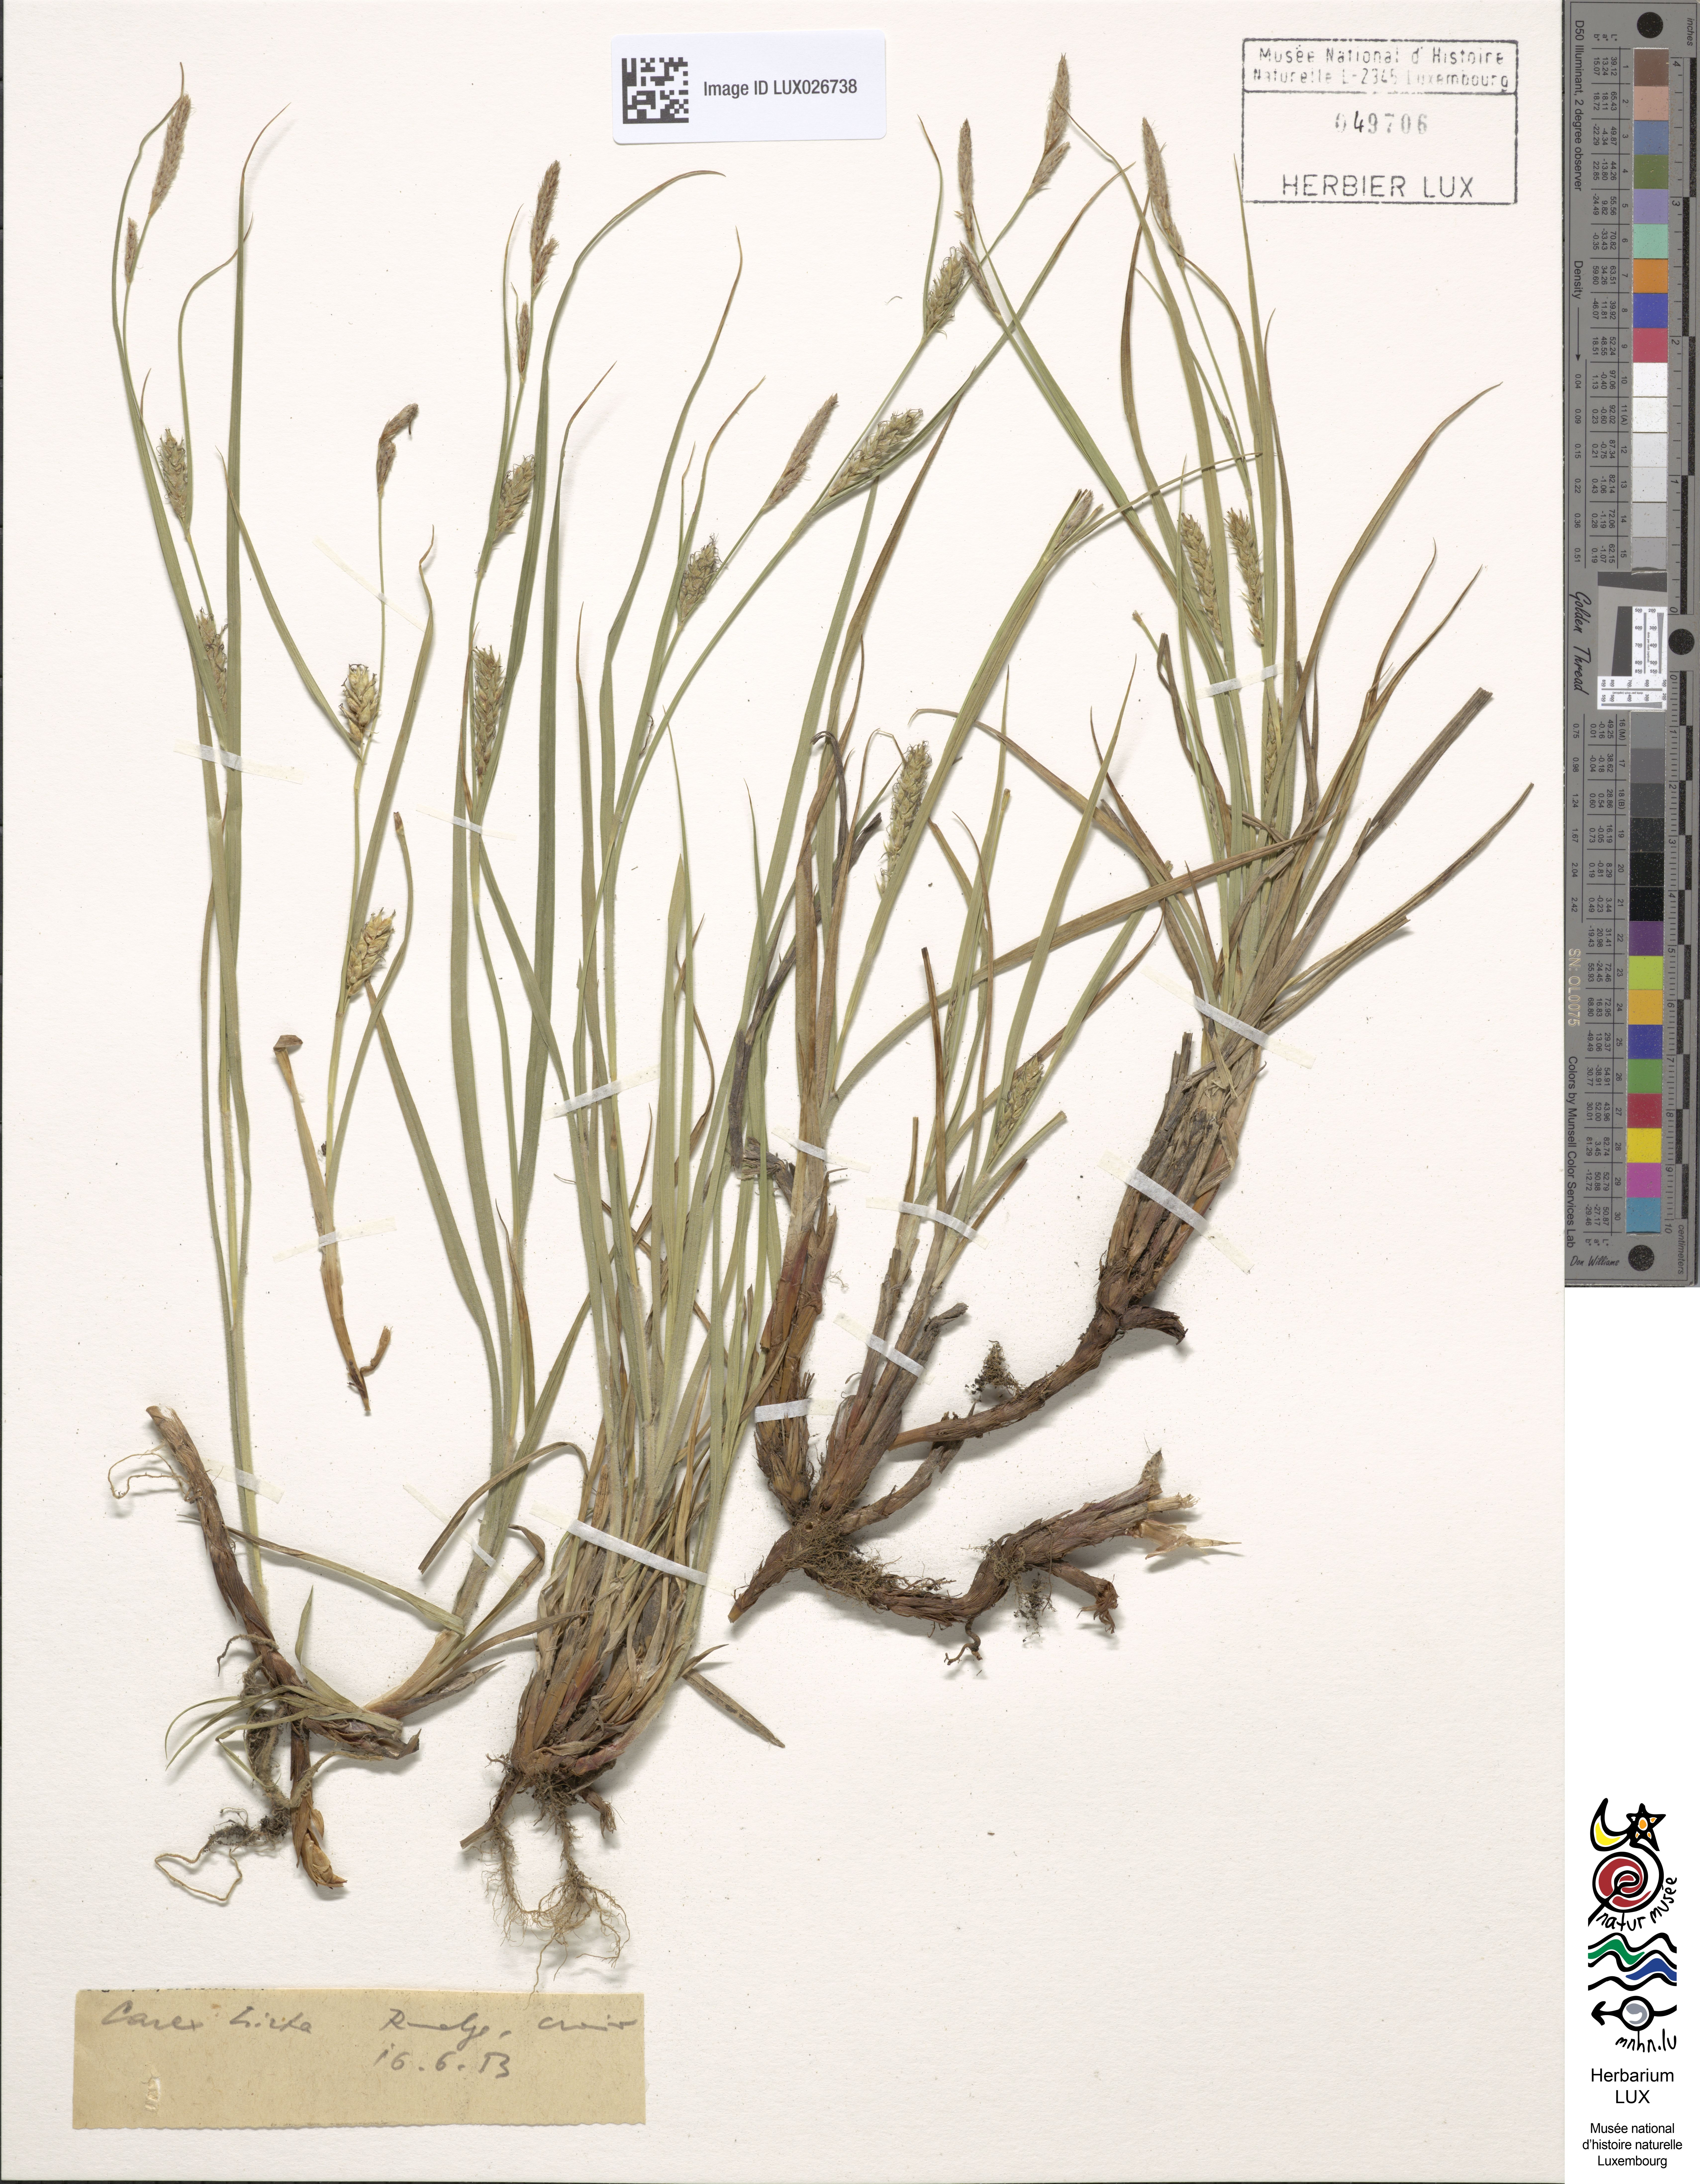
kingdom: Plantae
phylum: Tracheophyta
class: Liliopsida
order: Poales
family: Cyperaceae
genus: Carex
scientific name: Carex hirta
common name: Hairy sedge
